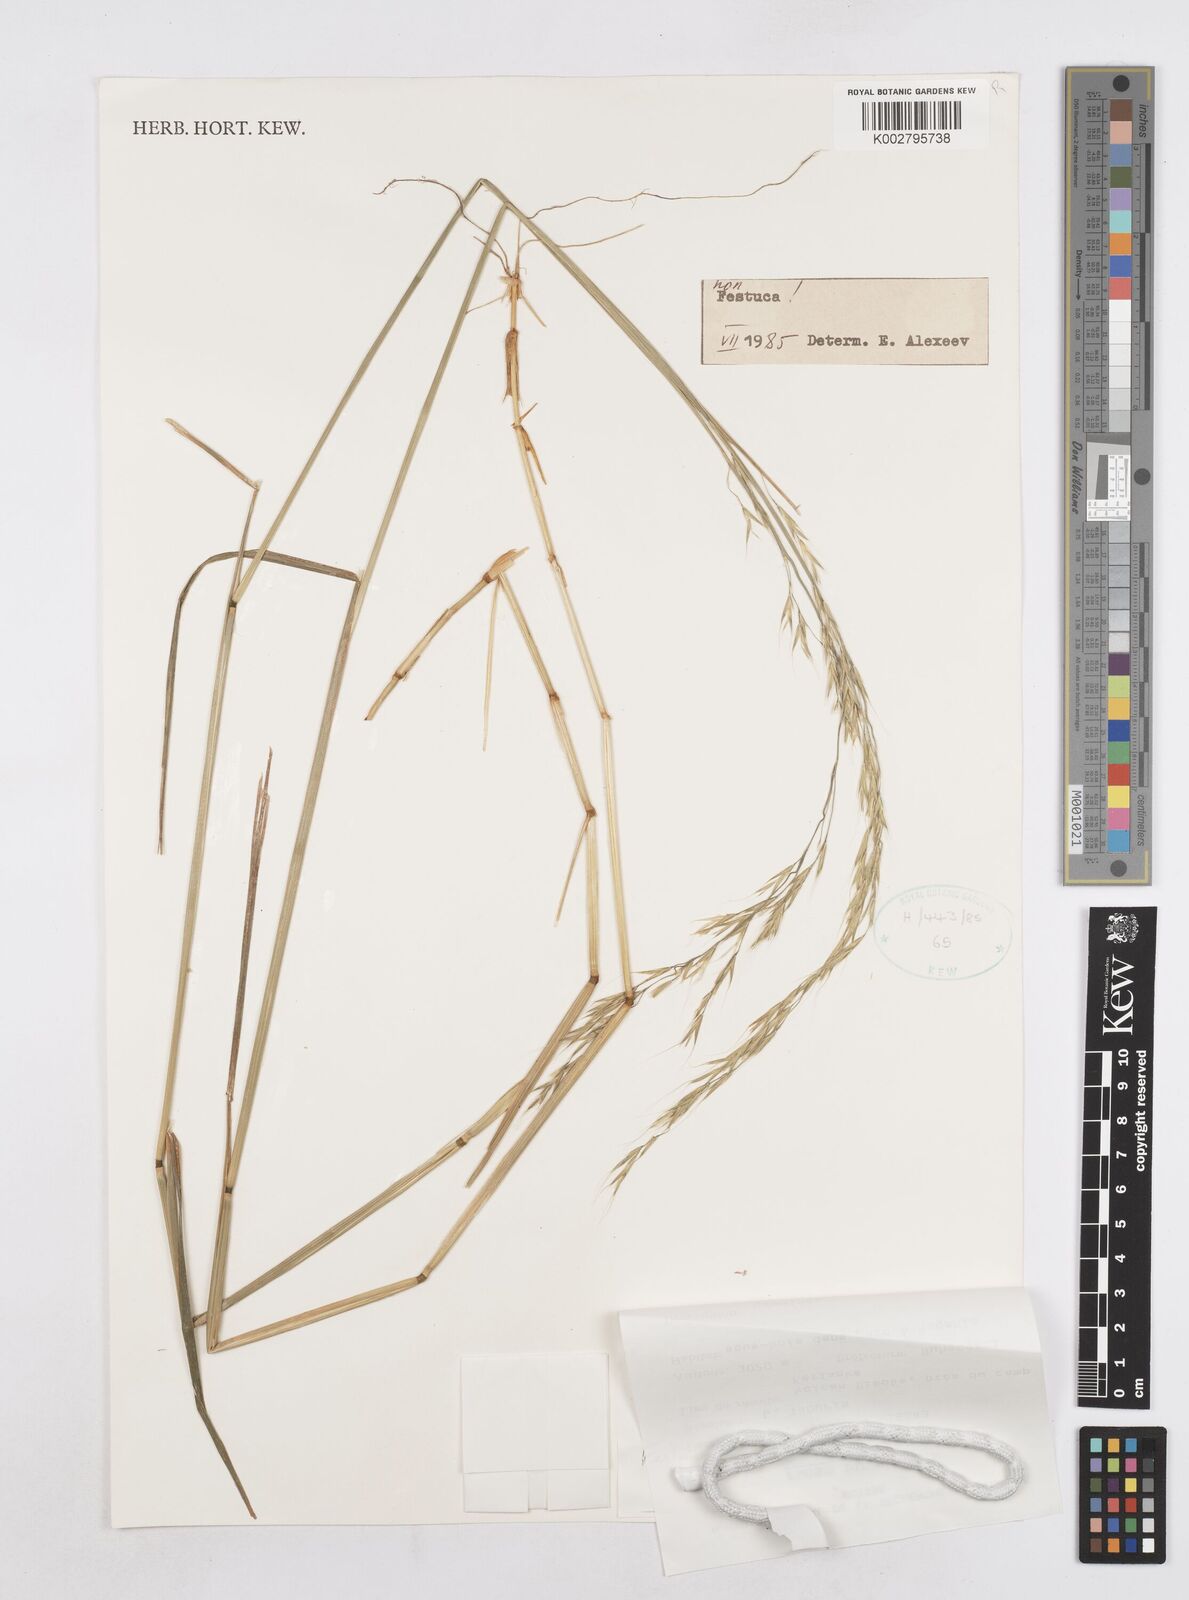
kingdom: Plantae
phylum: Tracheophyta
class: Liliopsida
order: Poales
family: Poaceae
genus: Trisetopsis
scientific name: Trisetopsis milanjiana
